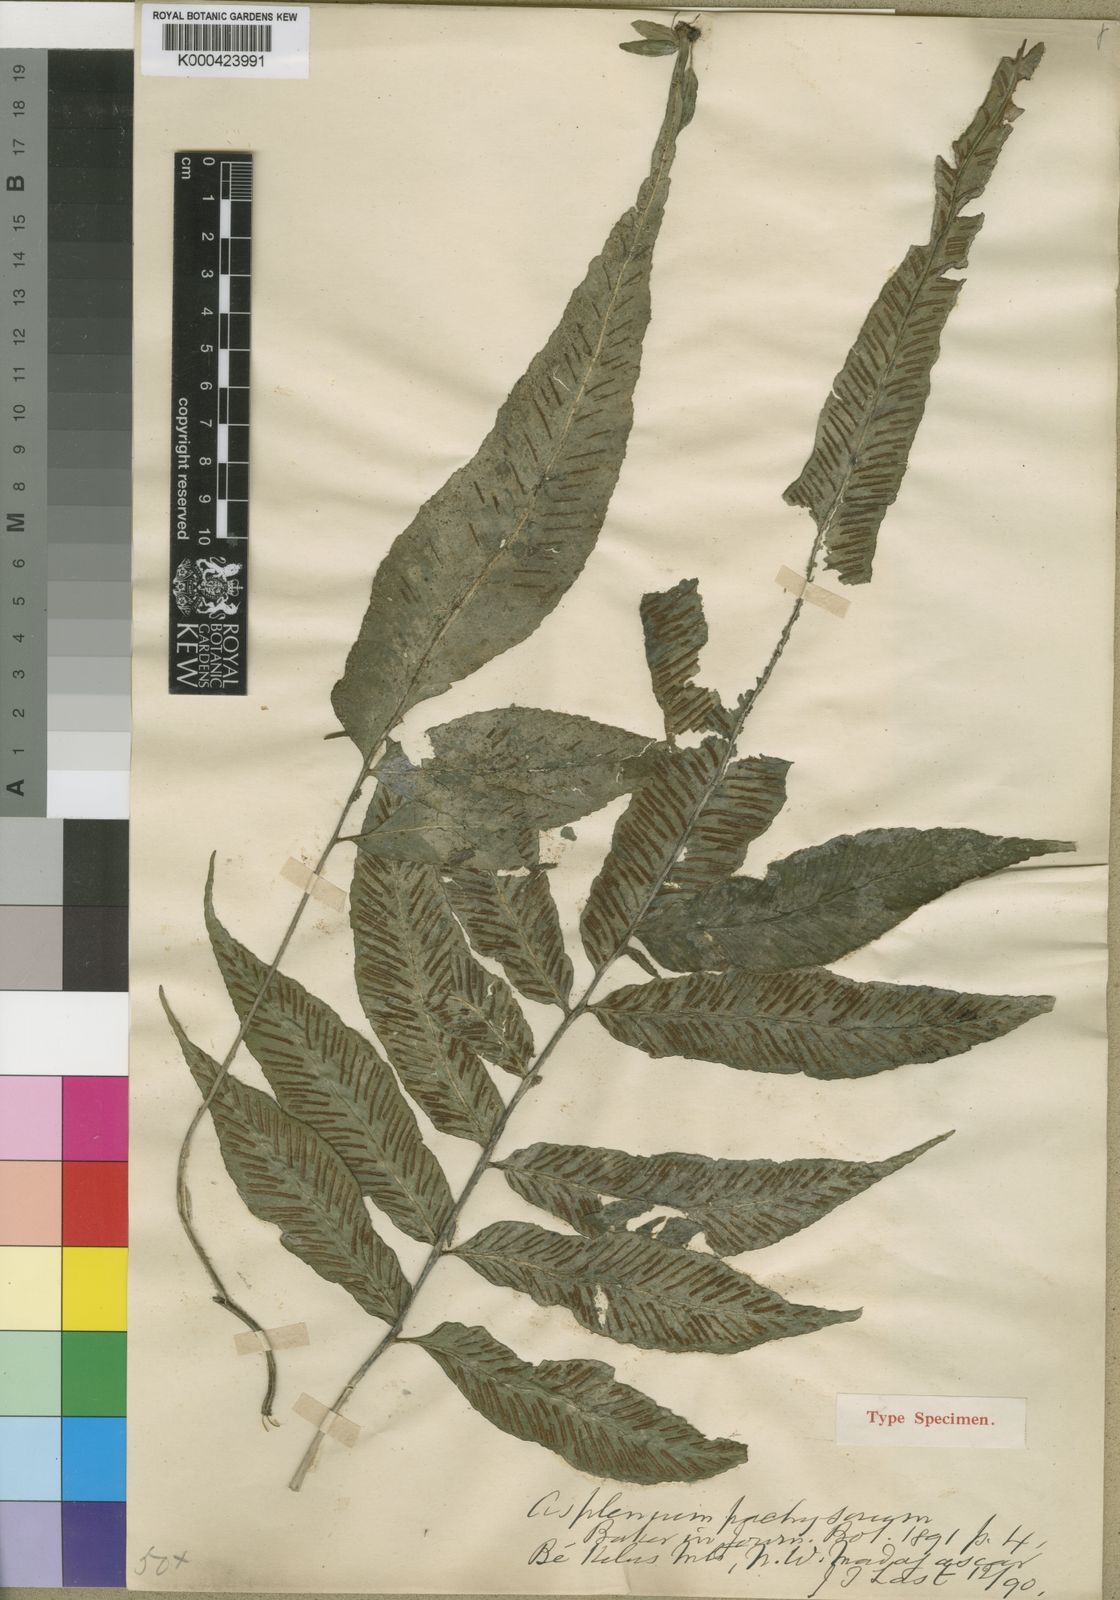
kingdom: Plantae
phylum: Tracheophyta
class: Polypodiopsida
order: Polypodiales
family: Aspleniaceae
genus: Asplenium
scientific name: Asplenium longicauda
